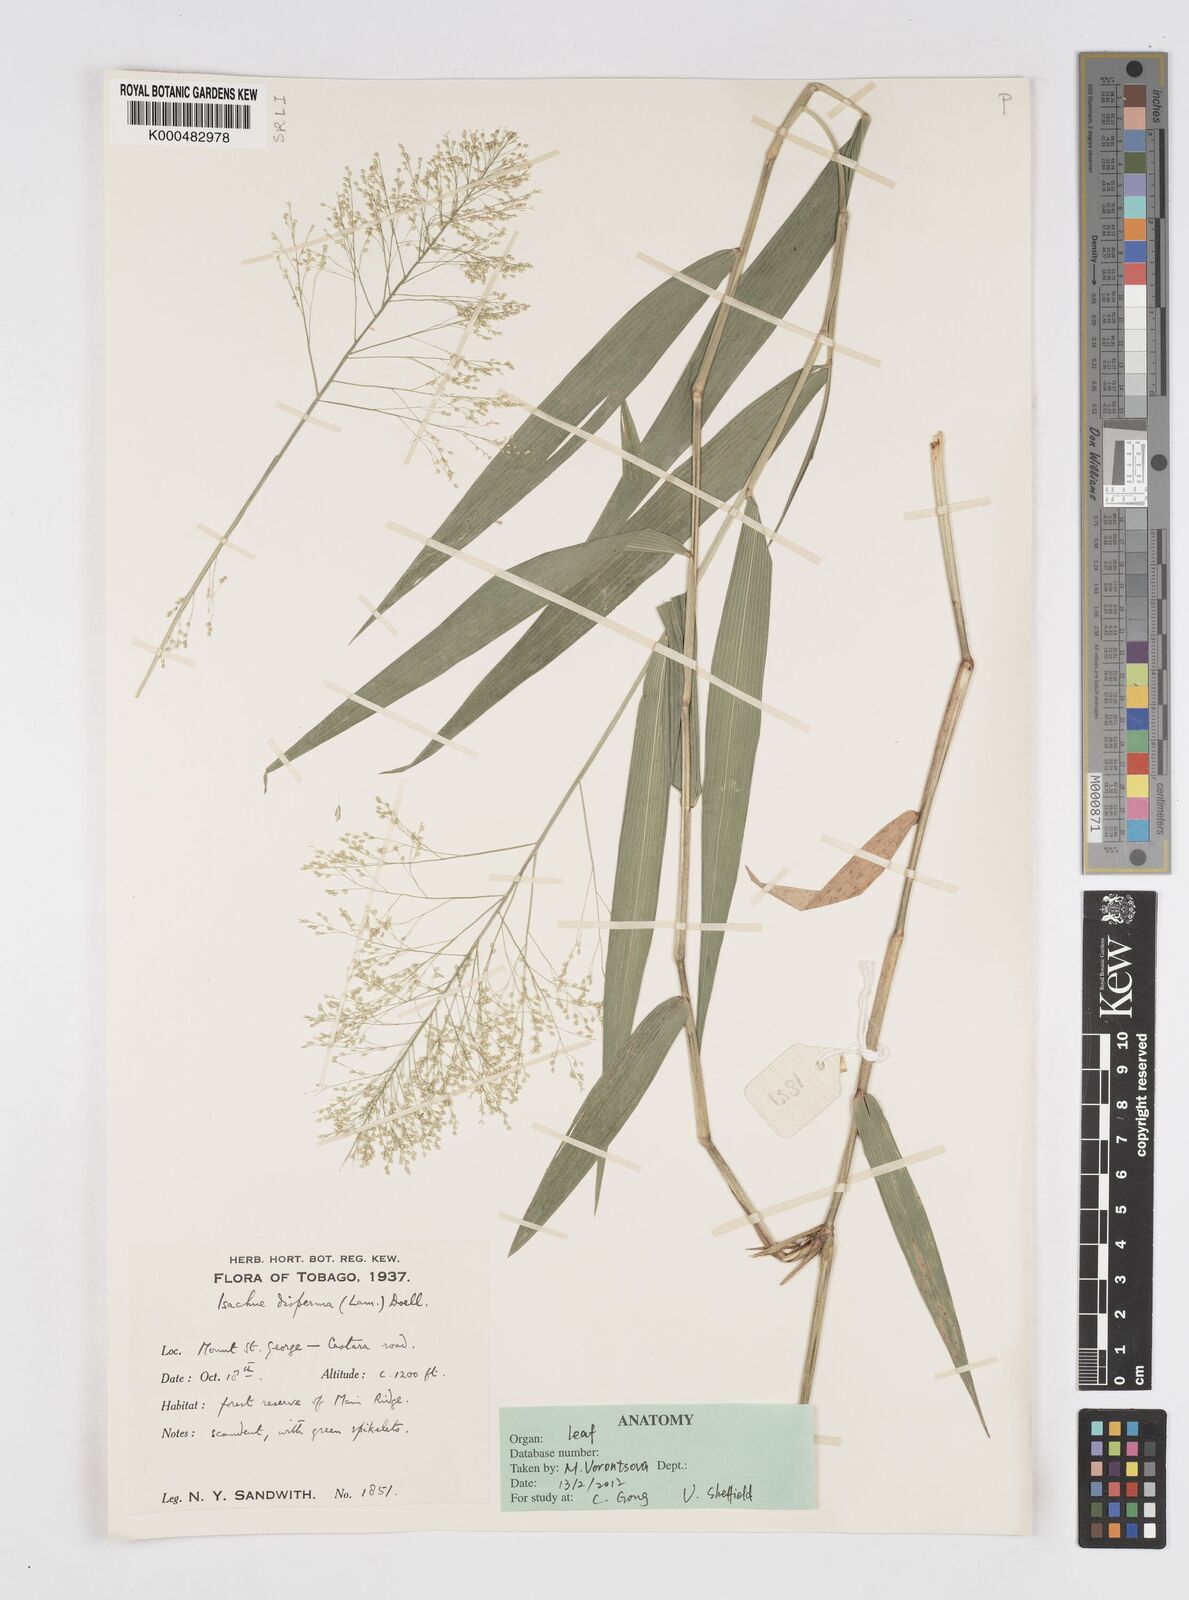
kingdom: Plantae
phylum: Tracheophyta
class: Liliopsida
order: Poales
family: Poaceae
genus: Isachne
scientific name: Isachne
